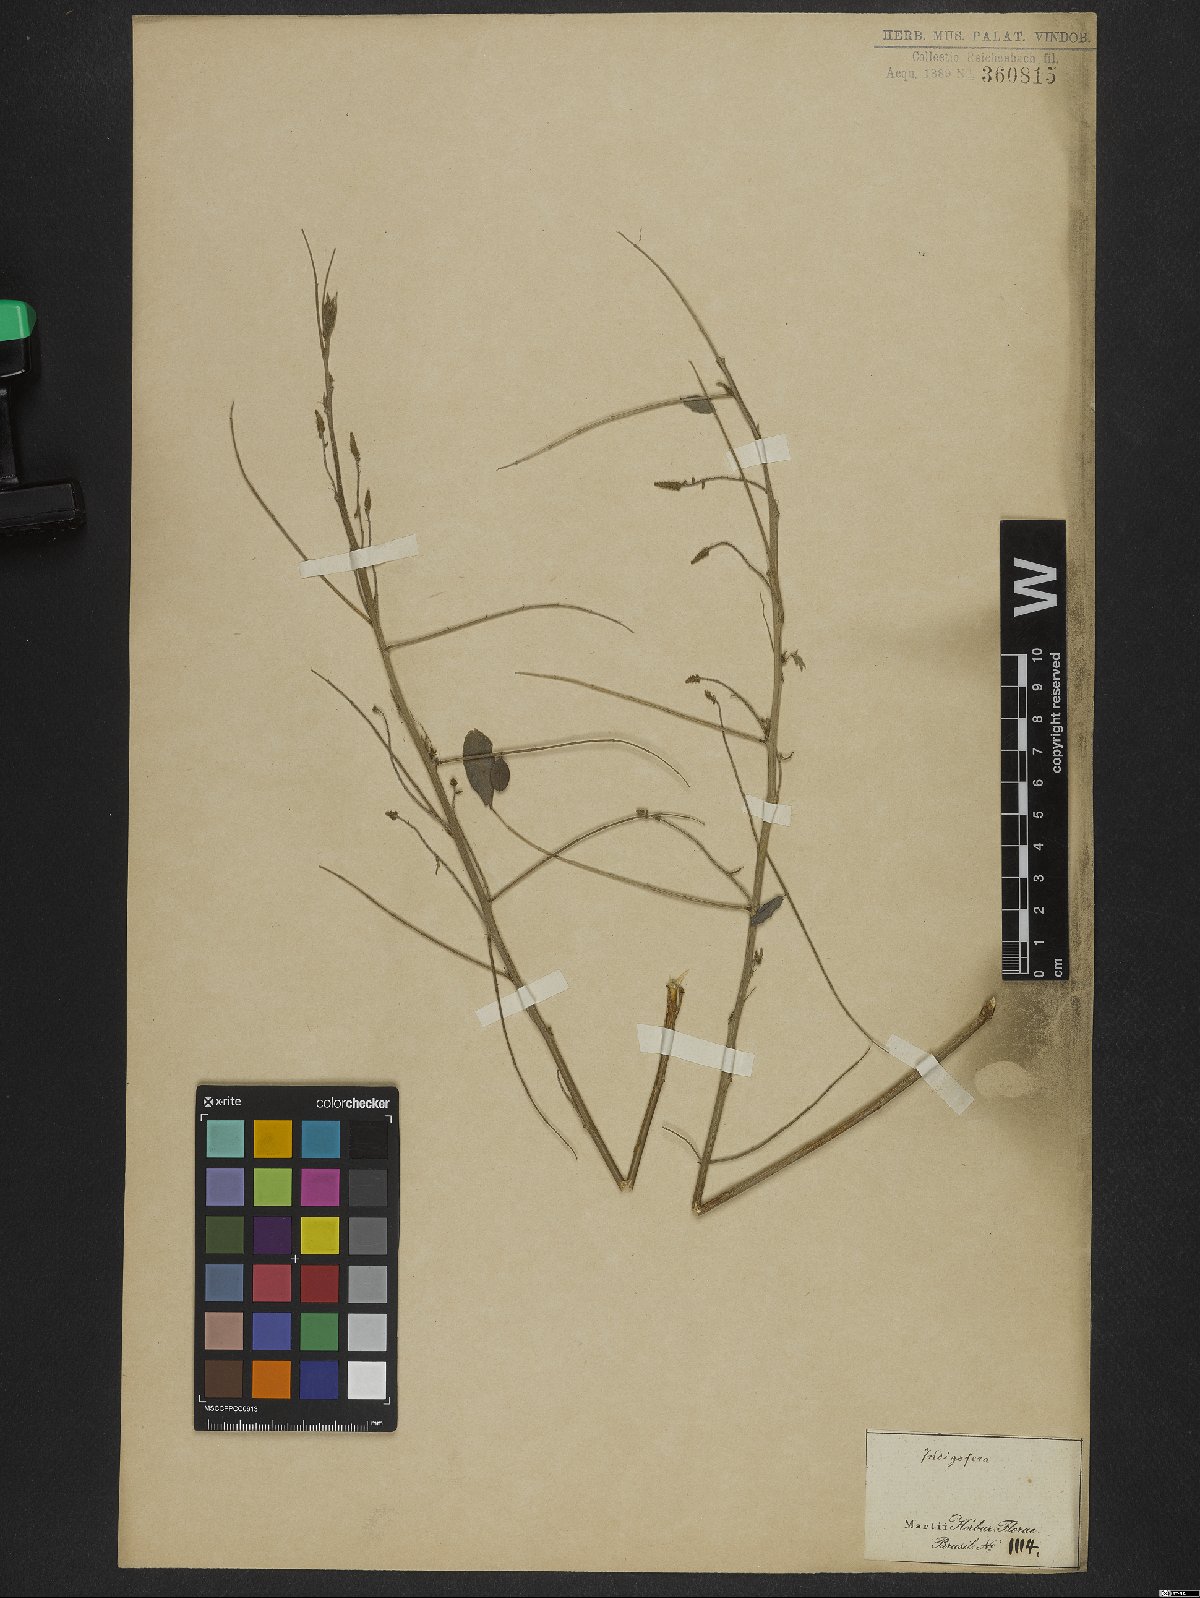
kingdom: Plantae
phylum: Tracheophyta
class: Magnoliopsida
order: Fabales
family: Fabaceae
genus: Indigofera
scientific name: Indigofera suffruticosa
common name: Anil de pasto
